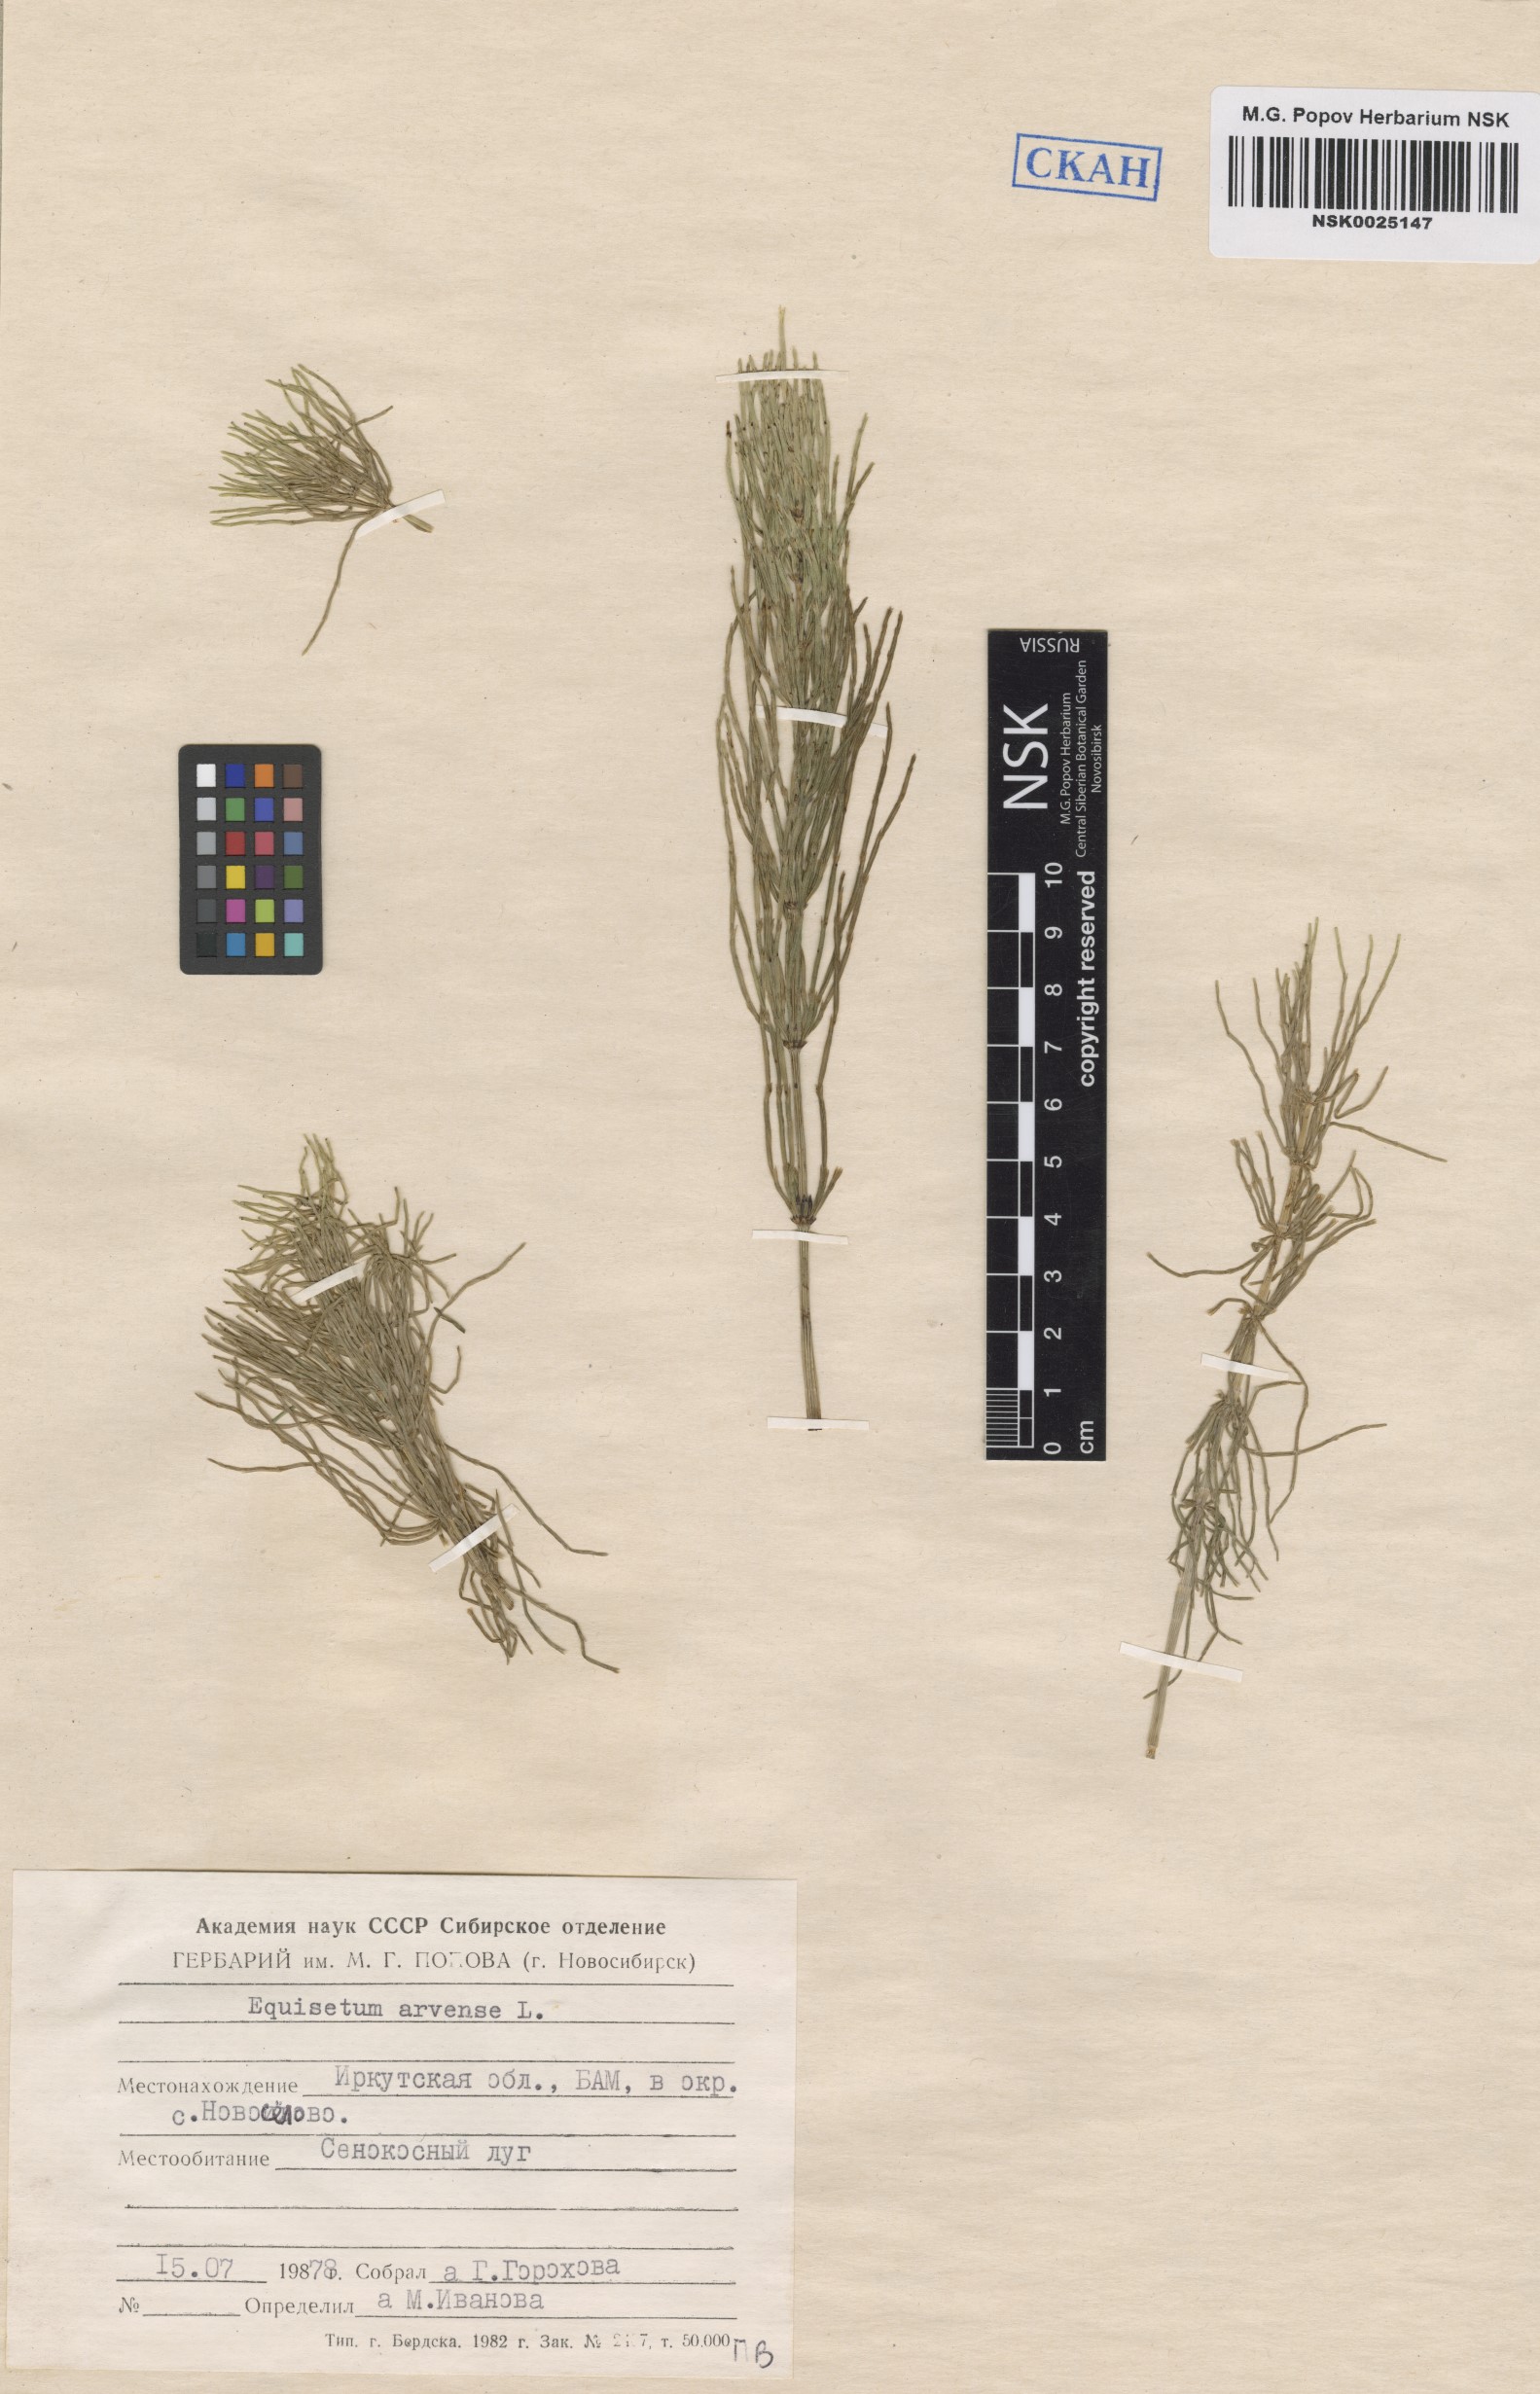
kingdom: Plantae
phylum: Tracheophyta
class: Polypodiopsida
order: Equisetales
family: Equisetaceae
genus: Equisetum
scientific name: Equisetum arvense
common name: Field horsetail
